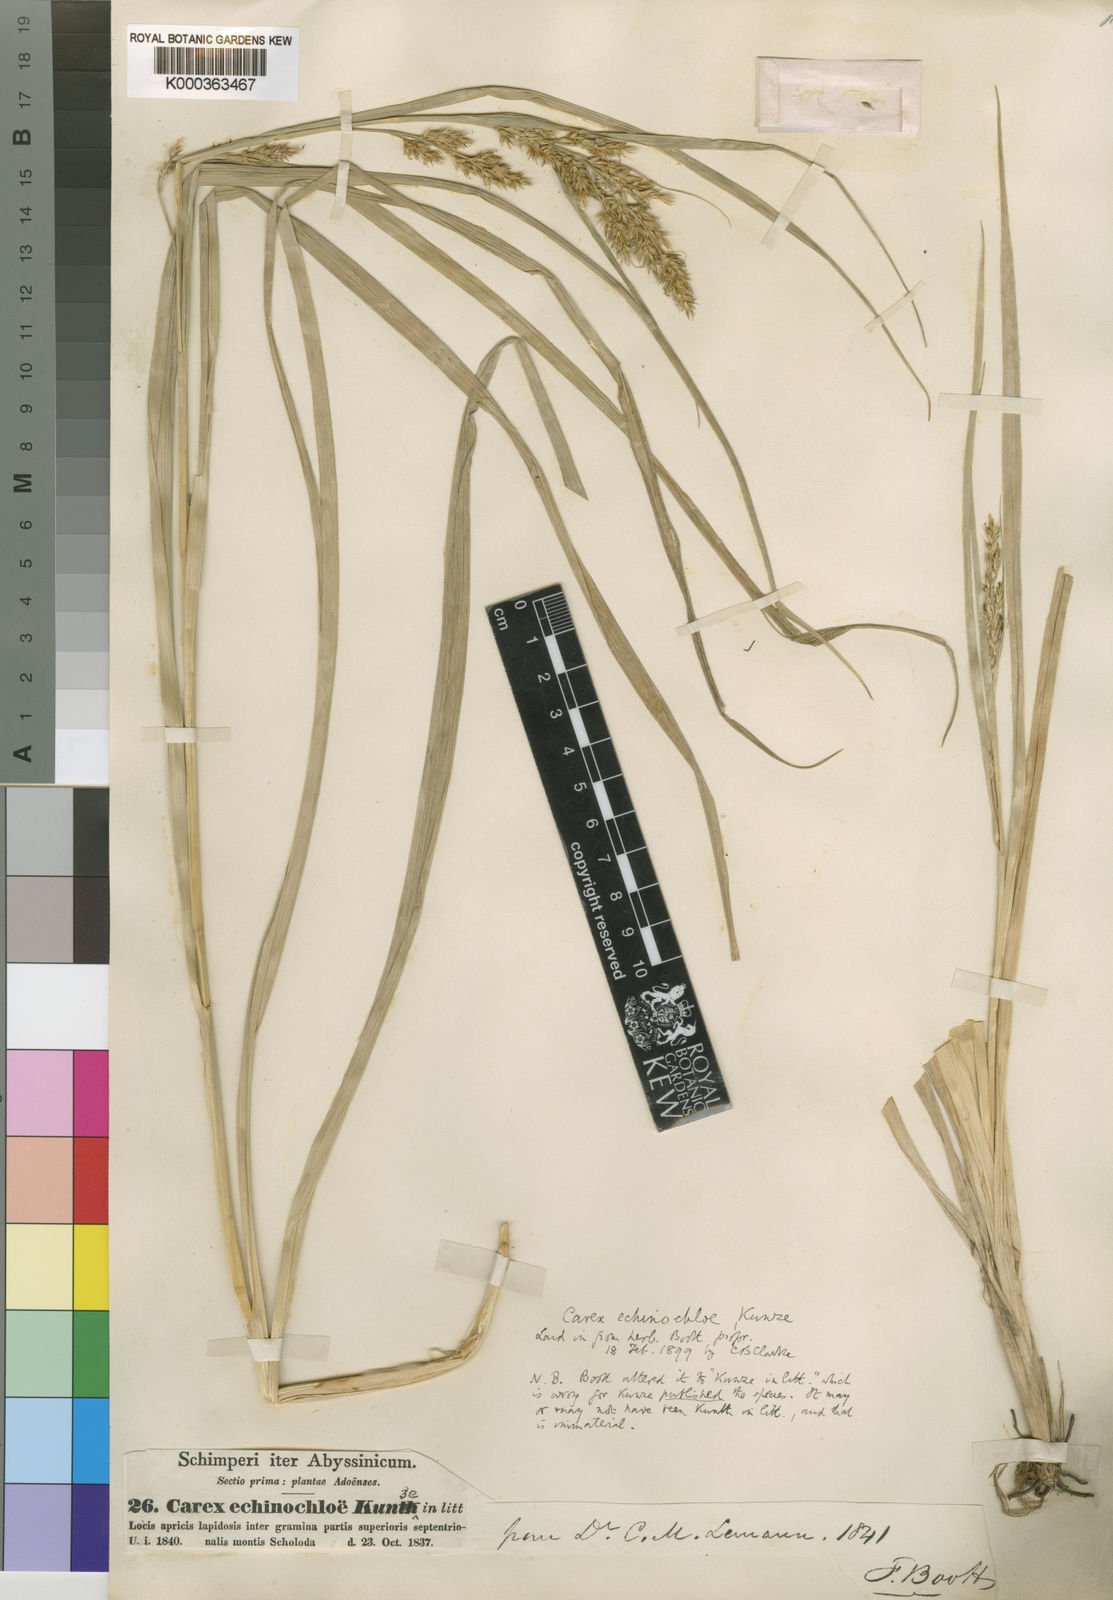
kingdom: Plantae
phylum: Tracheophyta
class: Liliopsida
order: Poales
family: Cyperaceae
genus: Carex
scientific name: Carex echinochloe
